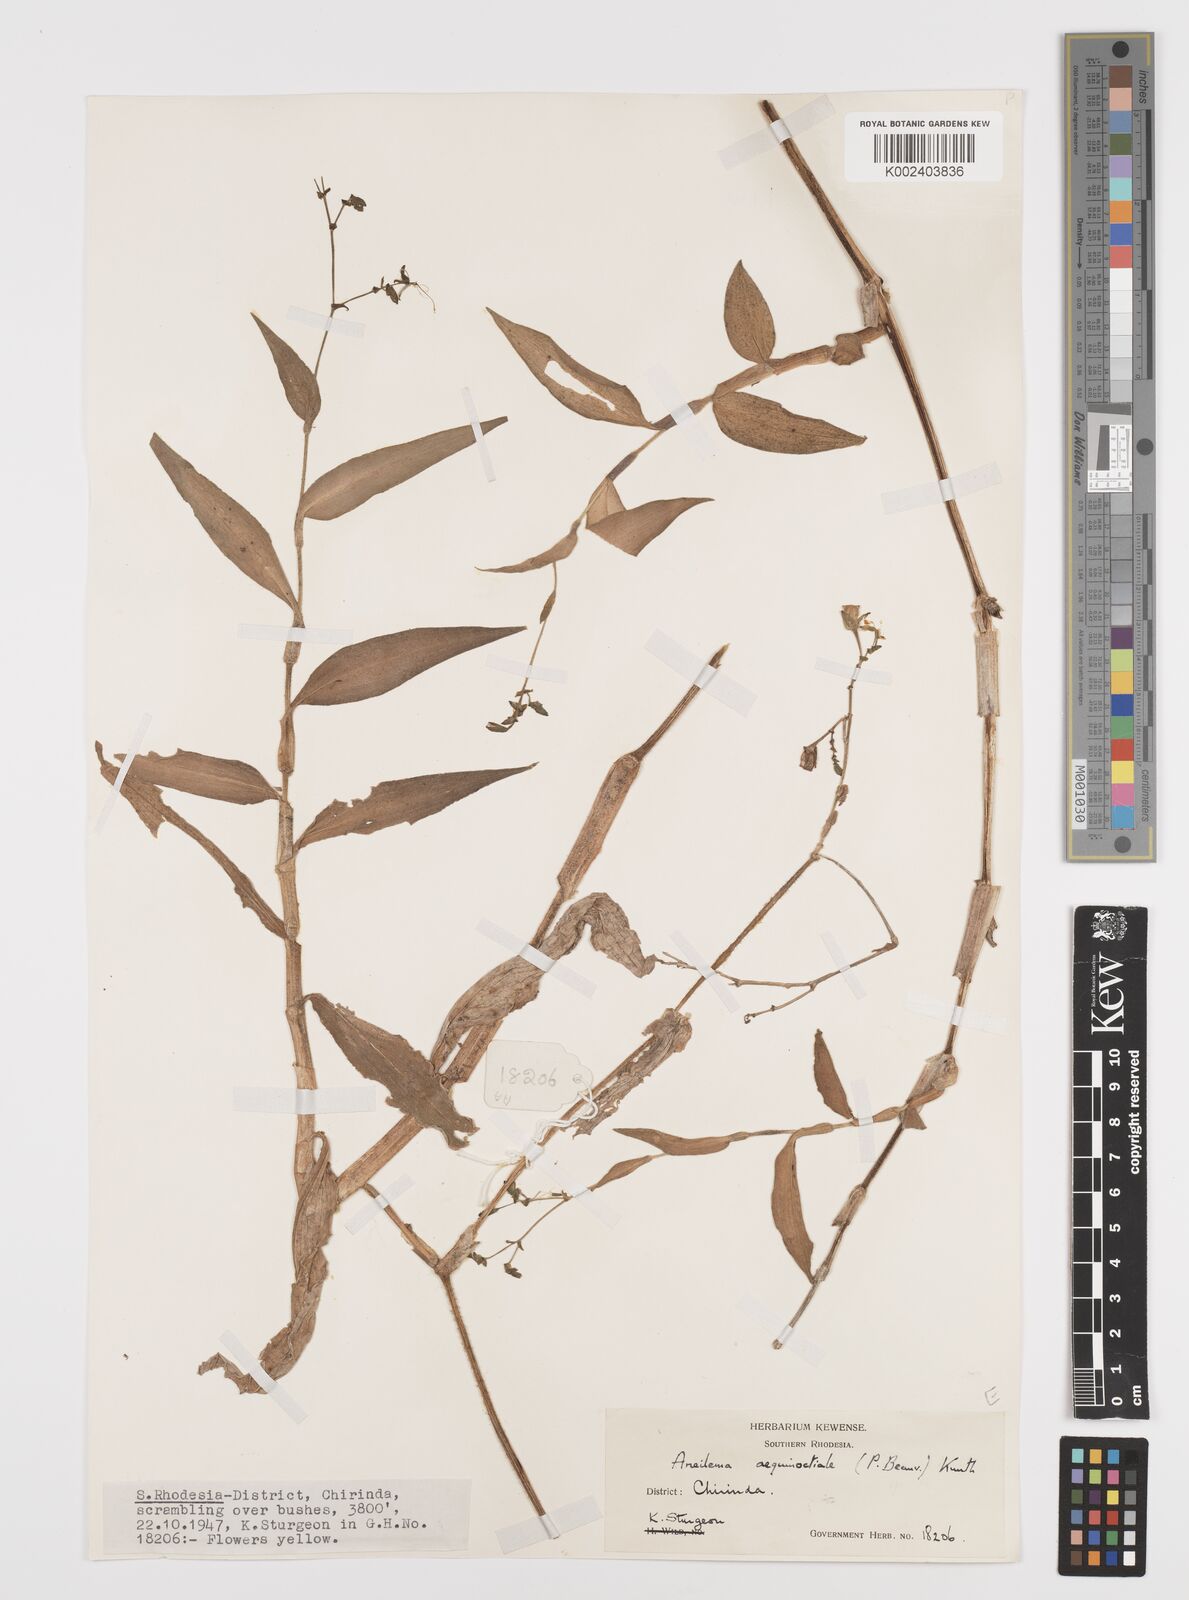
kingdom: Plantae
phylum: Tracheophyta
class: Liliopsida
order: Commelinales
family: Commelinaceae
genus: Aneilema
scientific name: Aneilema aequinoctiale
